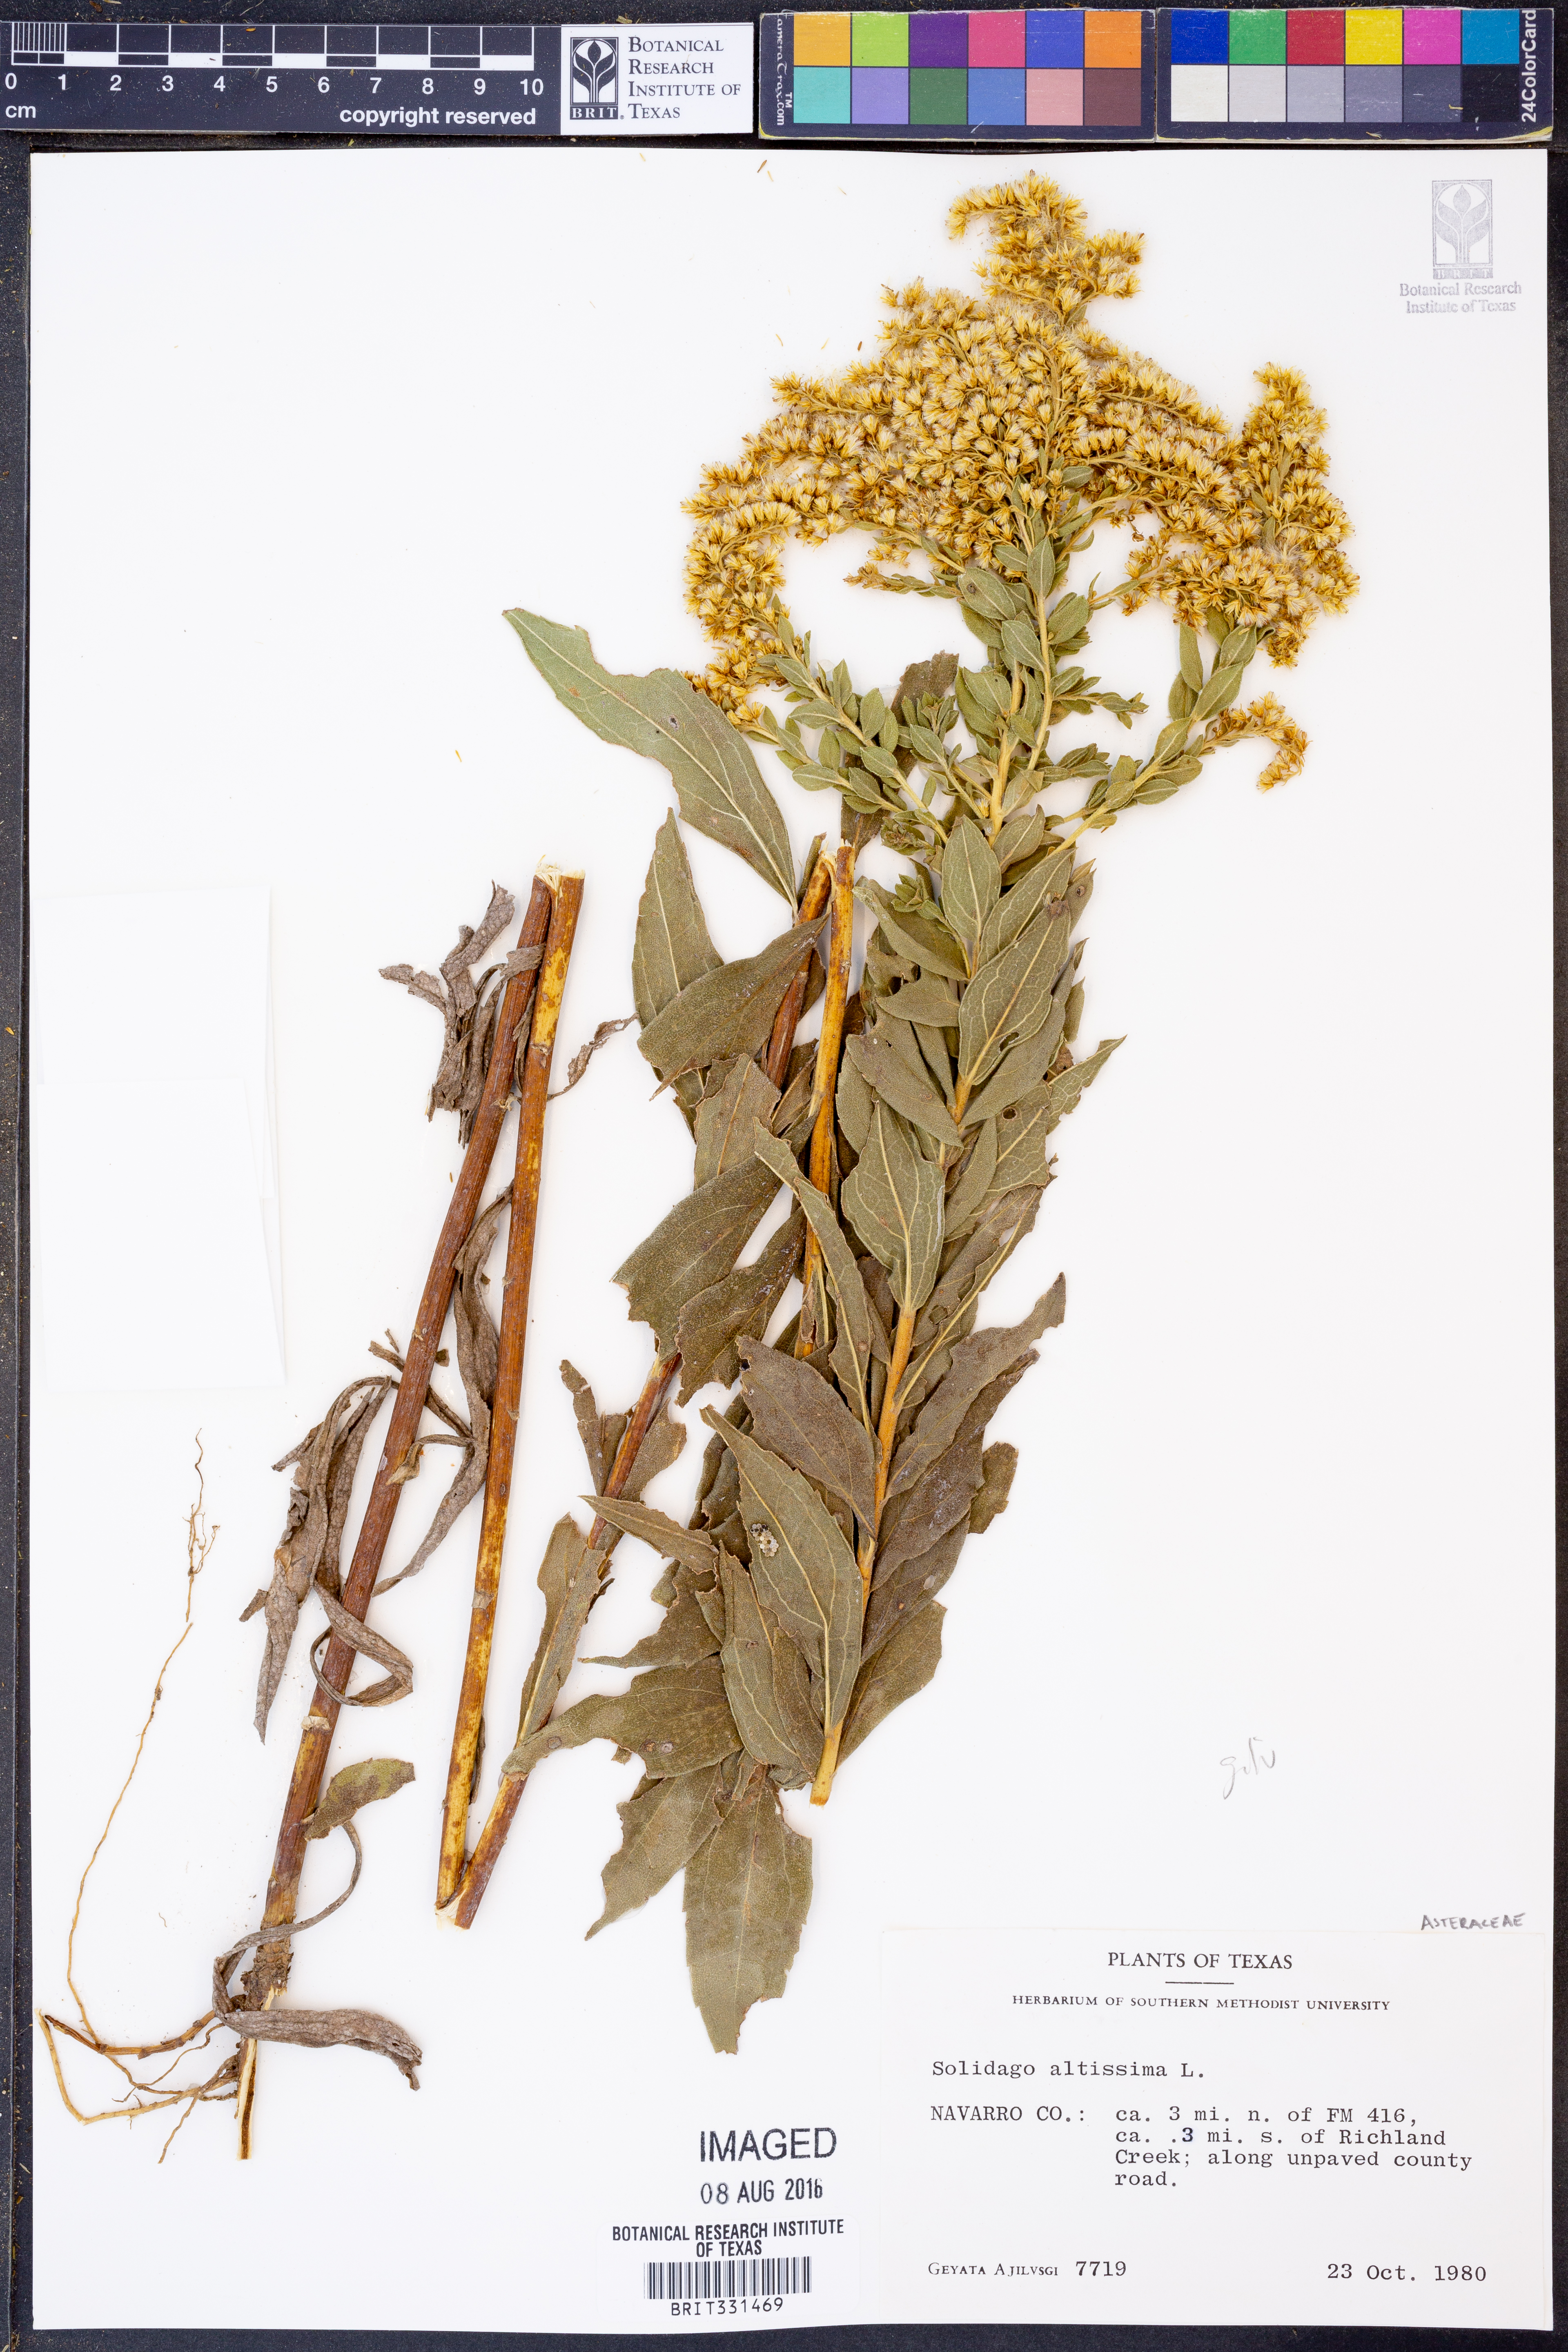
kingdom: Plantae
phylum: Tracheophyta
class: Magnoliopsida
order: Asterales
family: Asteraceae
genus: Solidago
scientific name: Solidago altissima
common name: Late goldenrod
